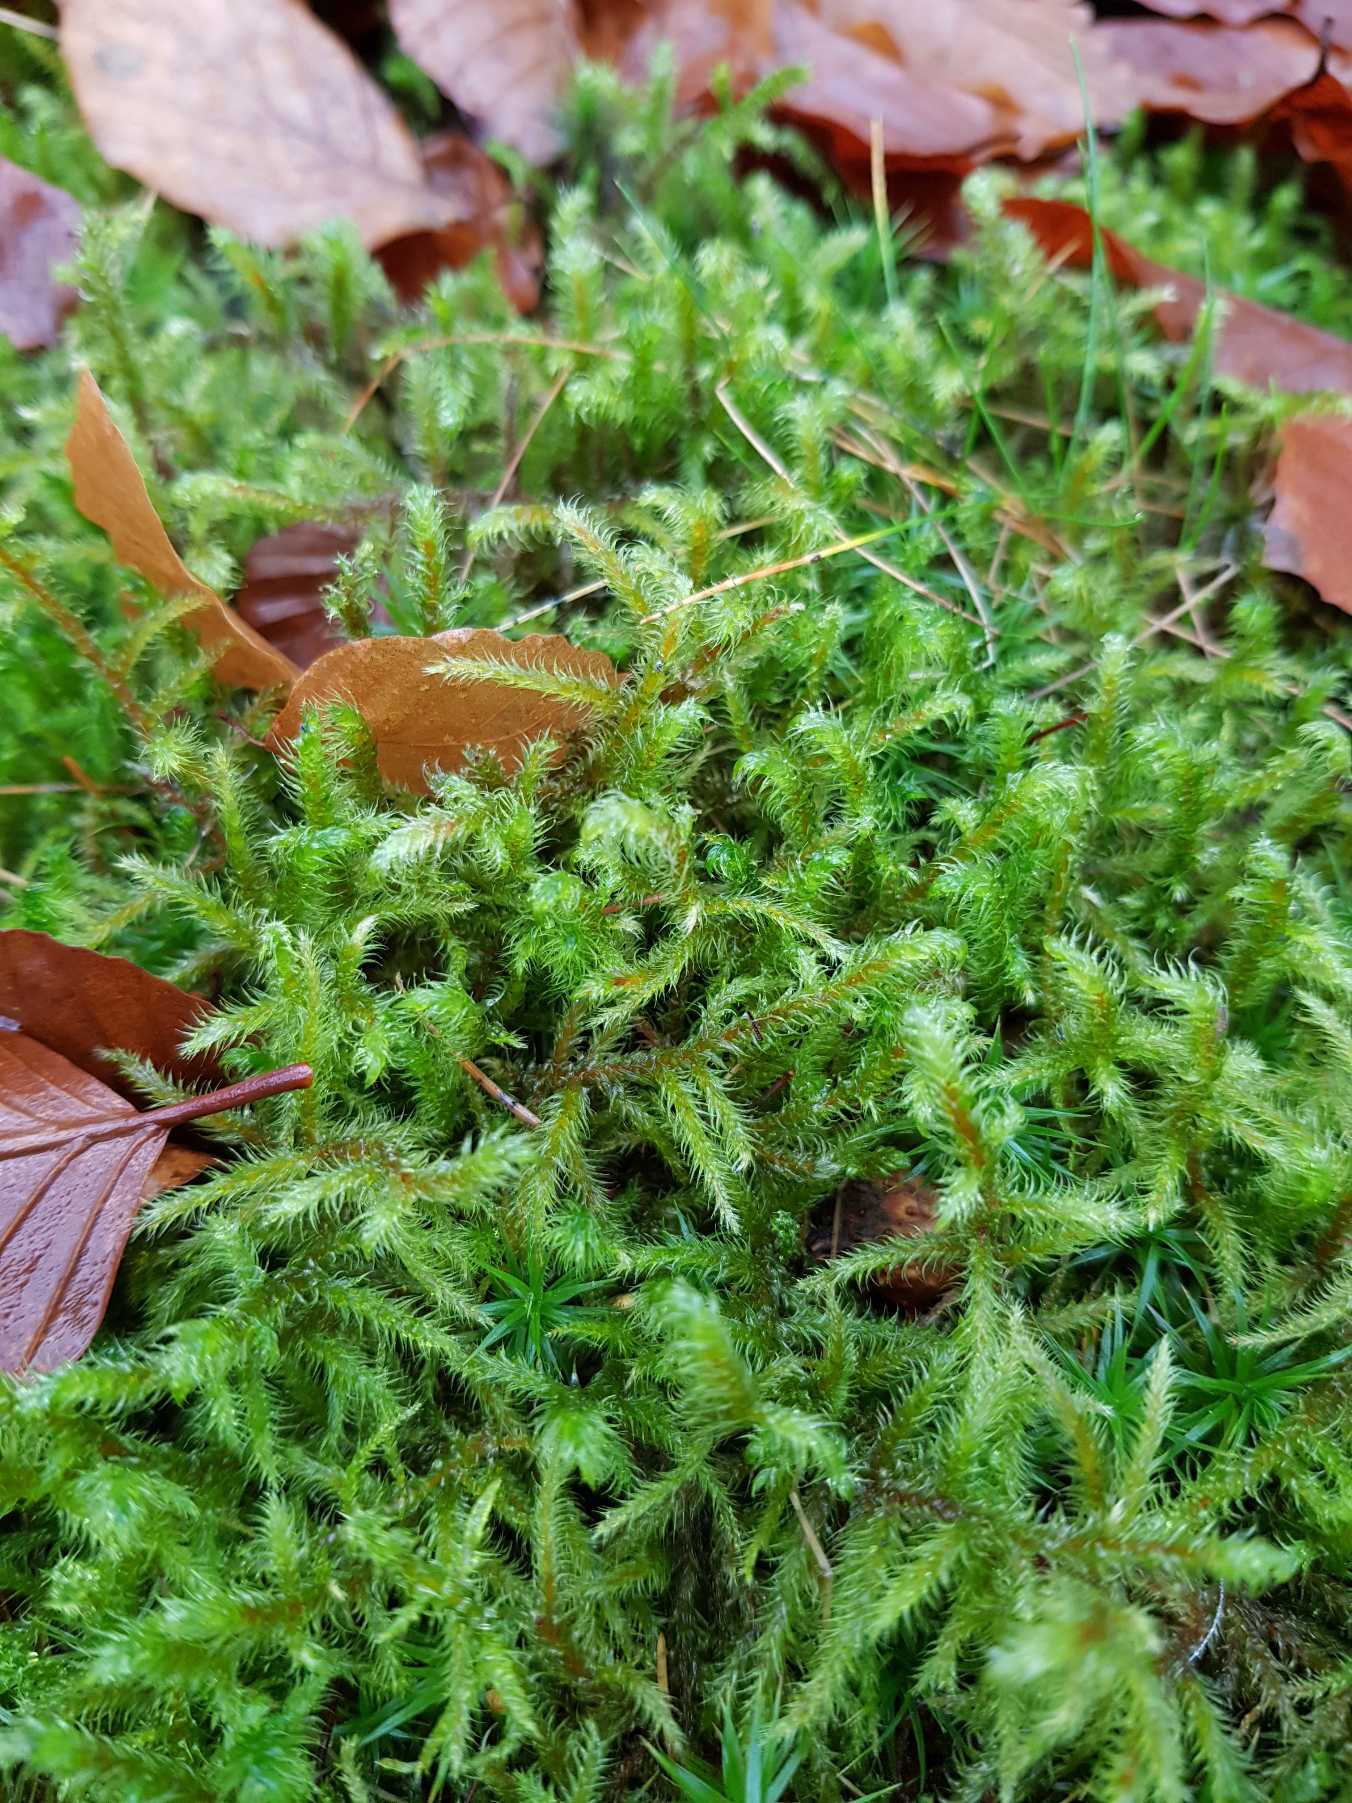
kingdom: Plantae
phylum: Bryophyta
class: Bryopsida
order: Hypnales
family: Hylocomiaceae
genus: Rhytidiadelphus
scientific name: Rhytidiadelphus loreus
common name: Ulvefod-kransemos
